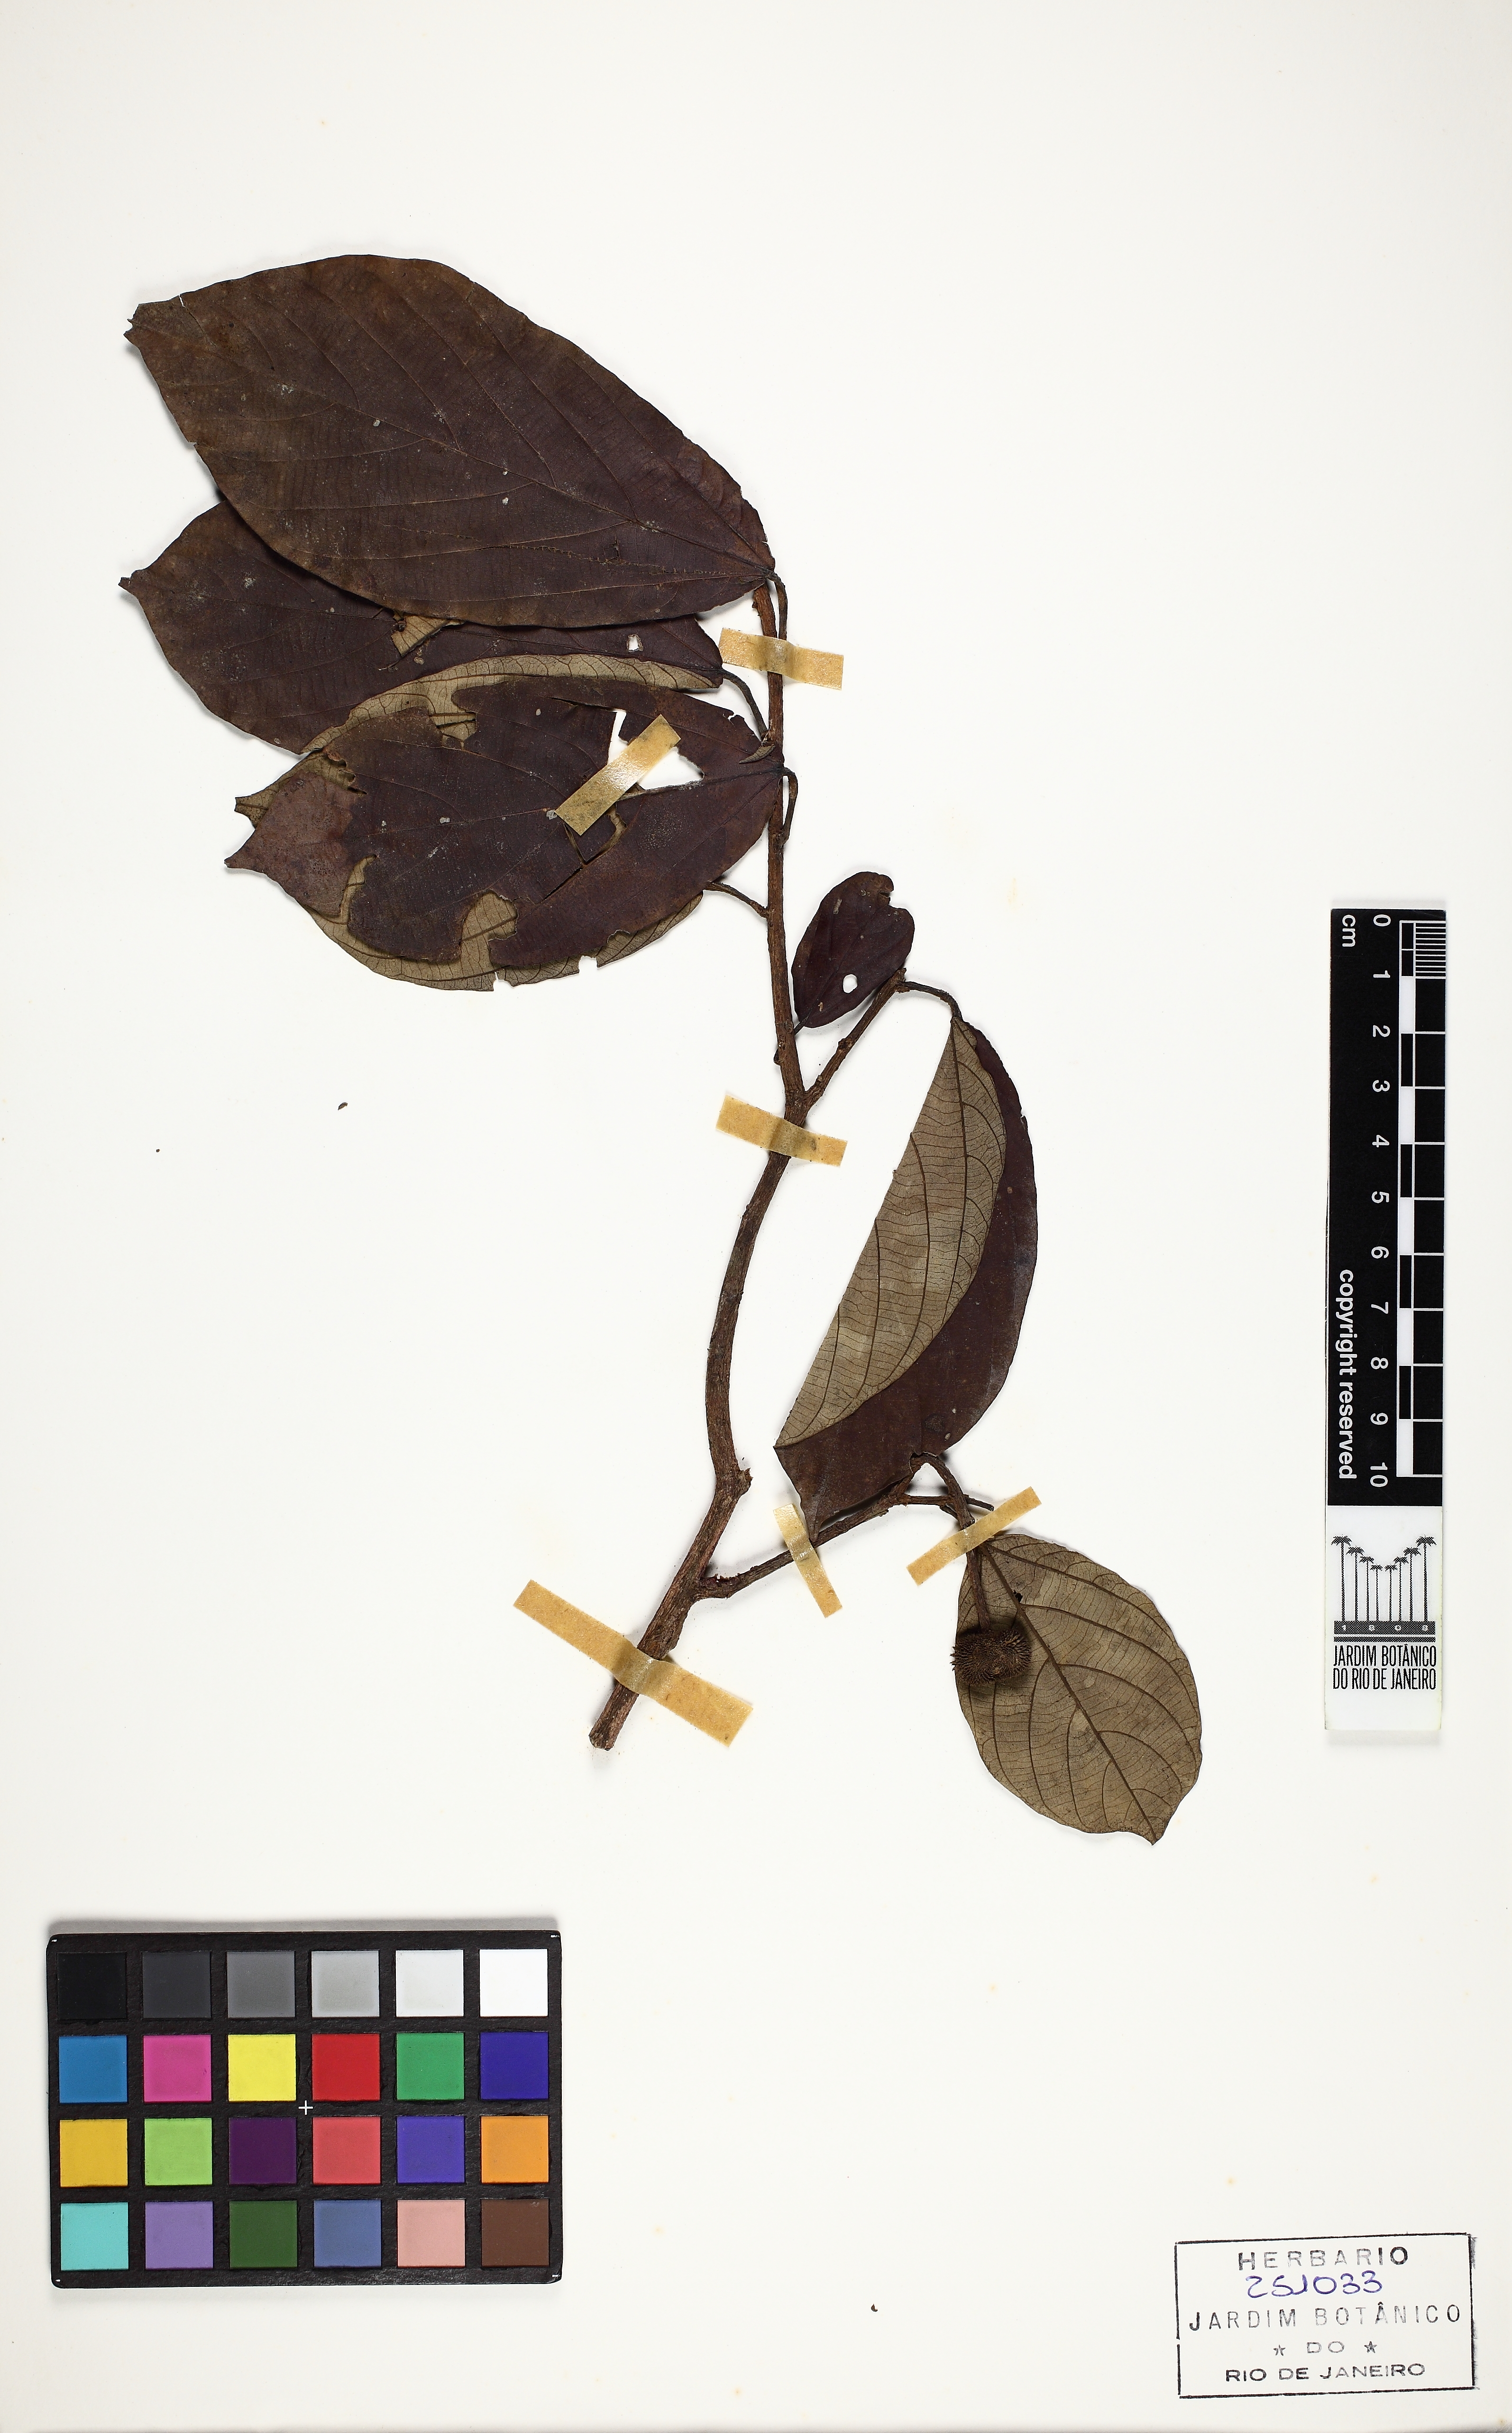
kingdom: Plantae
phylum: Tracheophyta
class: Magnoliopsida
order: Malvales
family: Malvaceae
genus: Apeiba
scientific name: Apeiba petoumo
